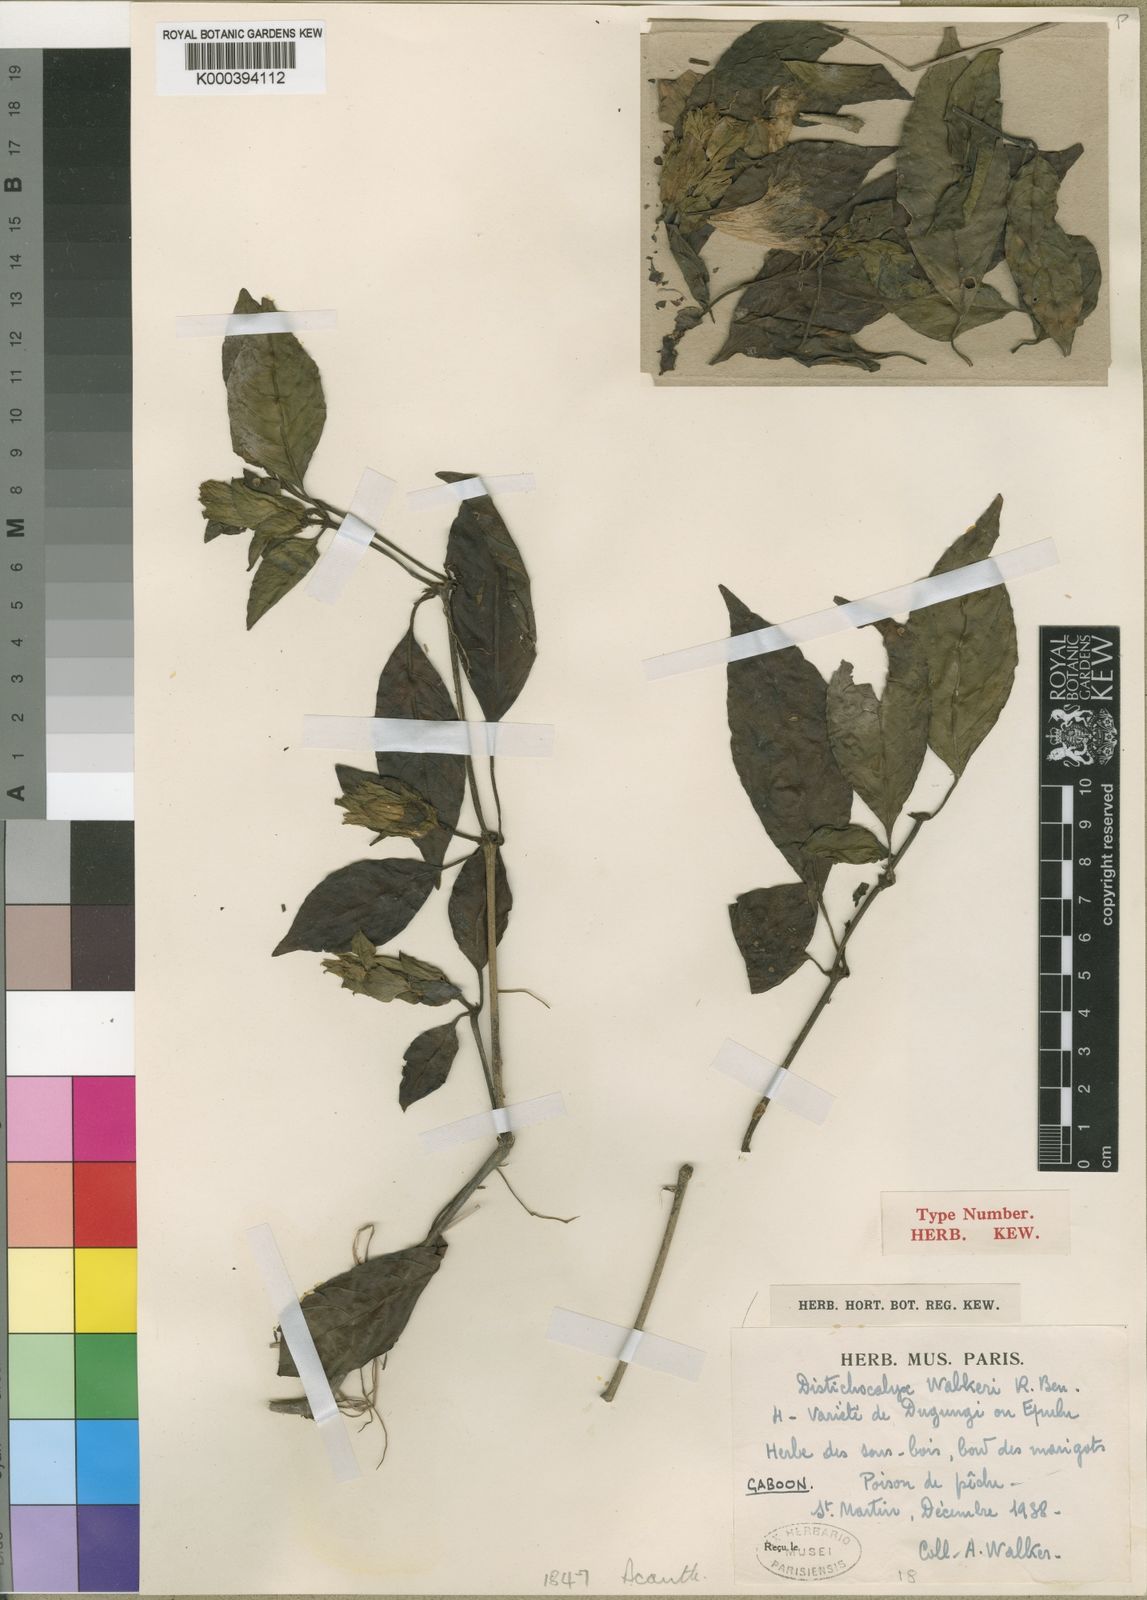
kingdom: Plantae
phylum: Tracheophyta
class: Magnoliopsida
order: Lamiales
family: Acanthaceae
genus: Dischistocalyx
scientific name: Dischistocalyx hirsutus
